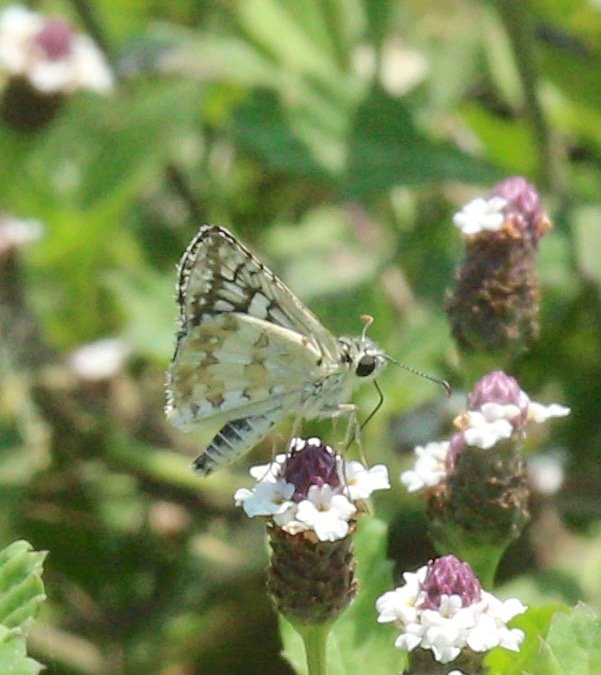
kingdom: Animalia
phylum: Arthropoda
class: Insecta
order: Lepidoptera
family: Hesperiidae
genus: Pyrgus
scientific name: Pyrgus communis
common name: White Checkered-Skipper
